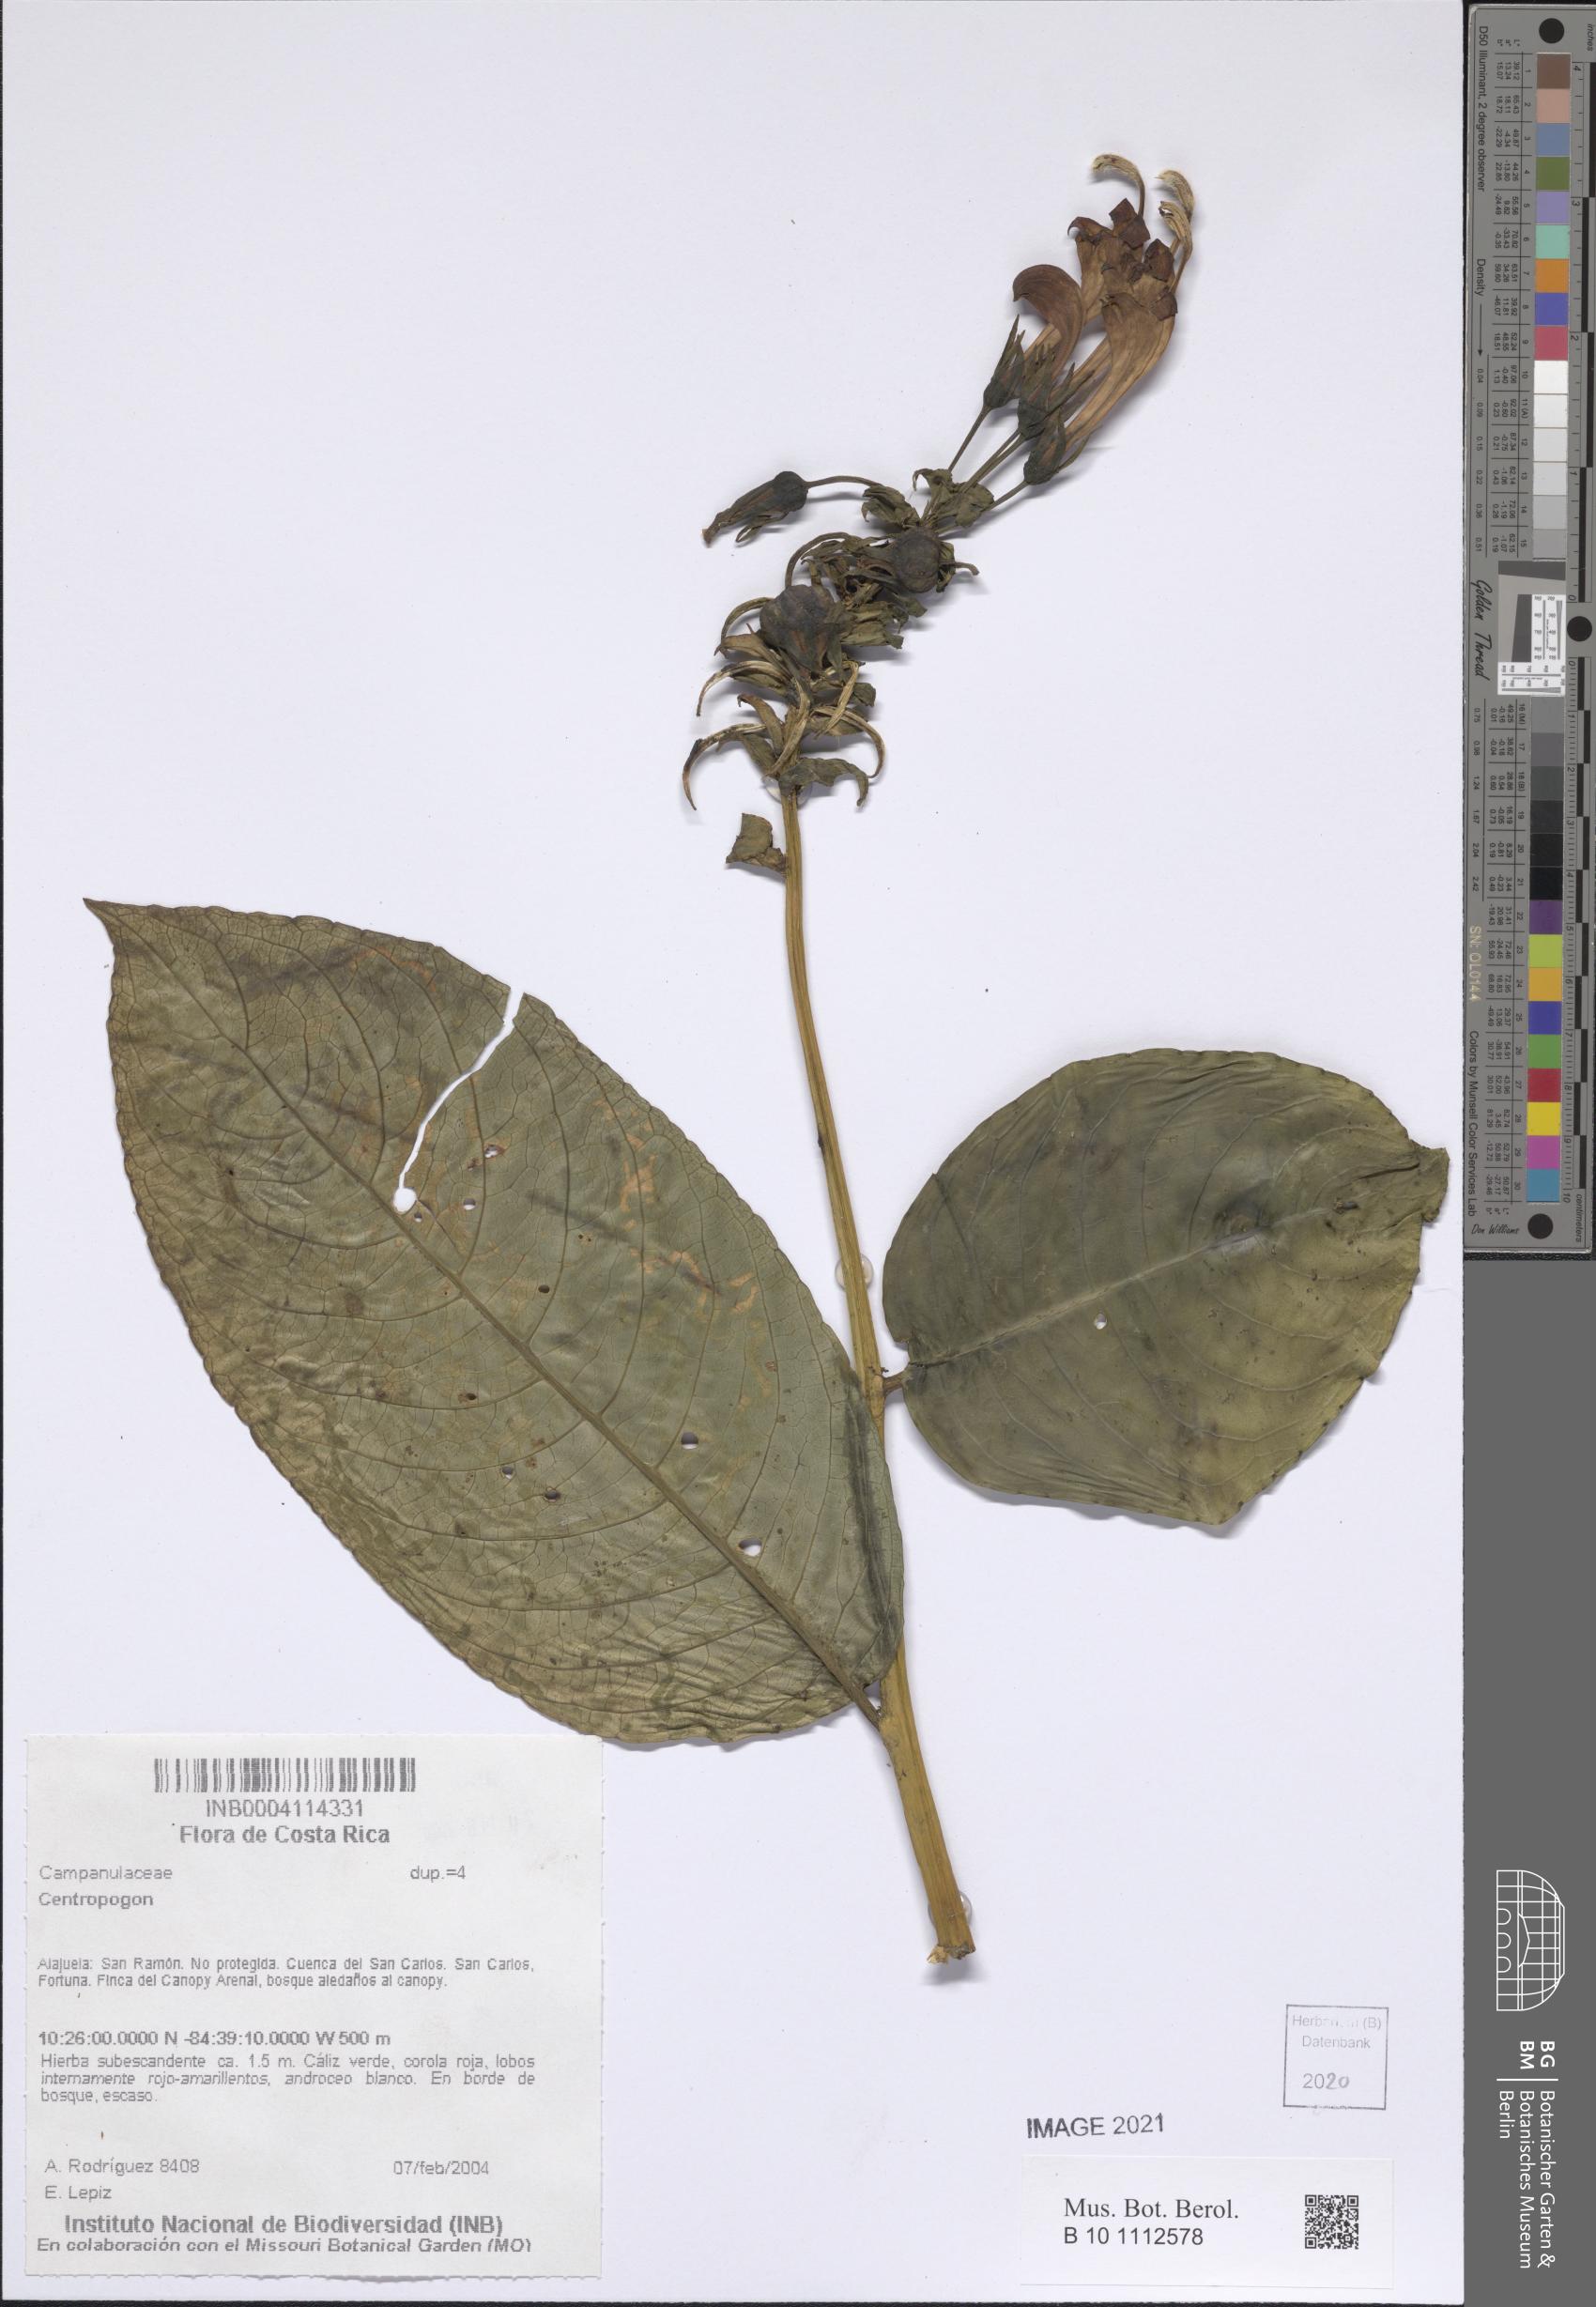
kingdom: Plantae
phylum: Tracheophyta
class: Magnoliopsida
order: Asterales
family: Campanulaceae
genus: Centropogon
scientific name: Centropogon
